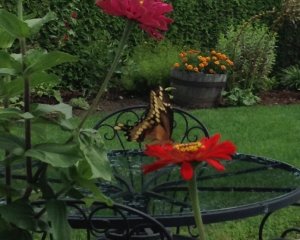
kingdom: Animalia
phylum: Arthropoda
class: Insecta
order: Lepidoptera
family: Papilionidae
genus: Papilio
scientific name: Papilio cresphontes
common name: Eastern Giant Swallowtail
